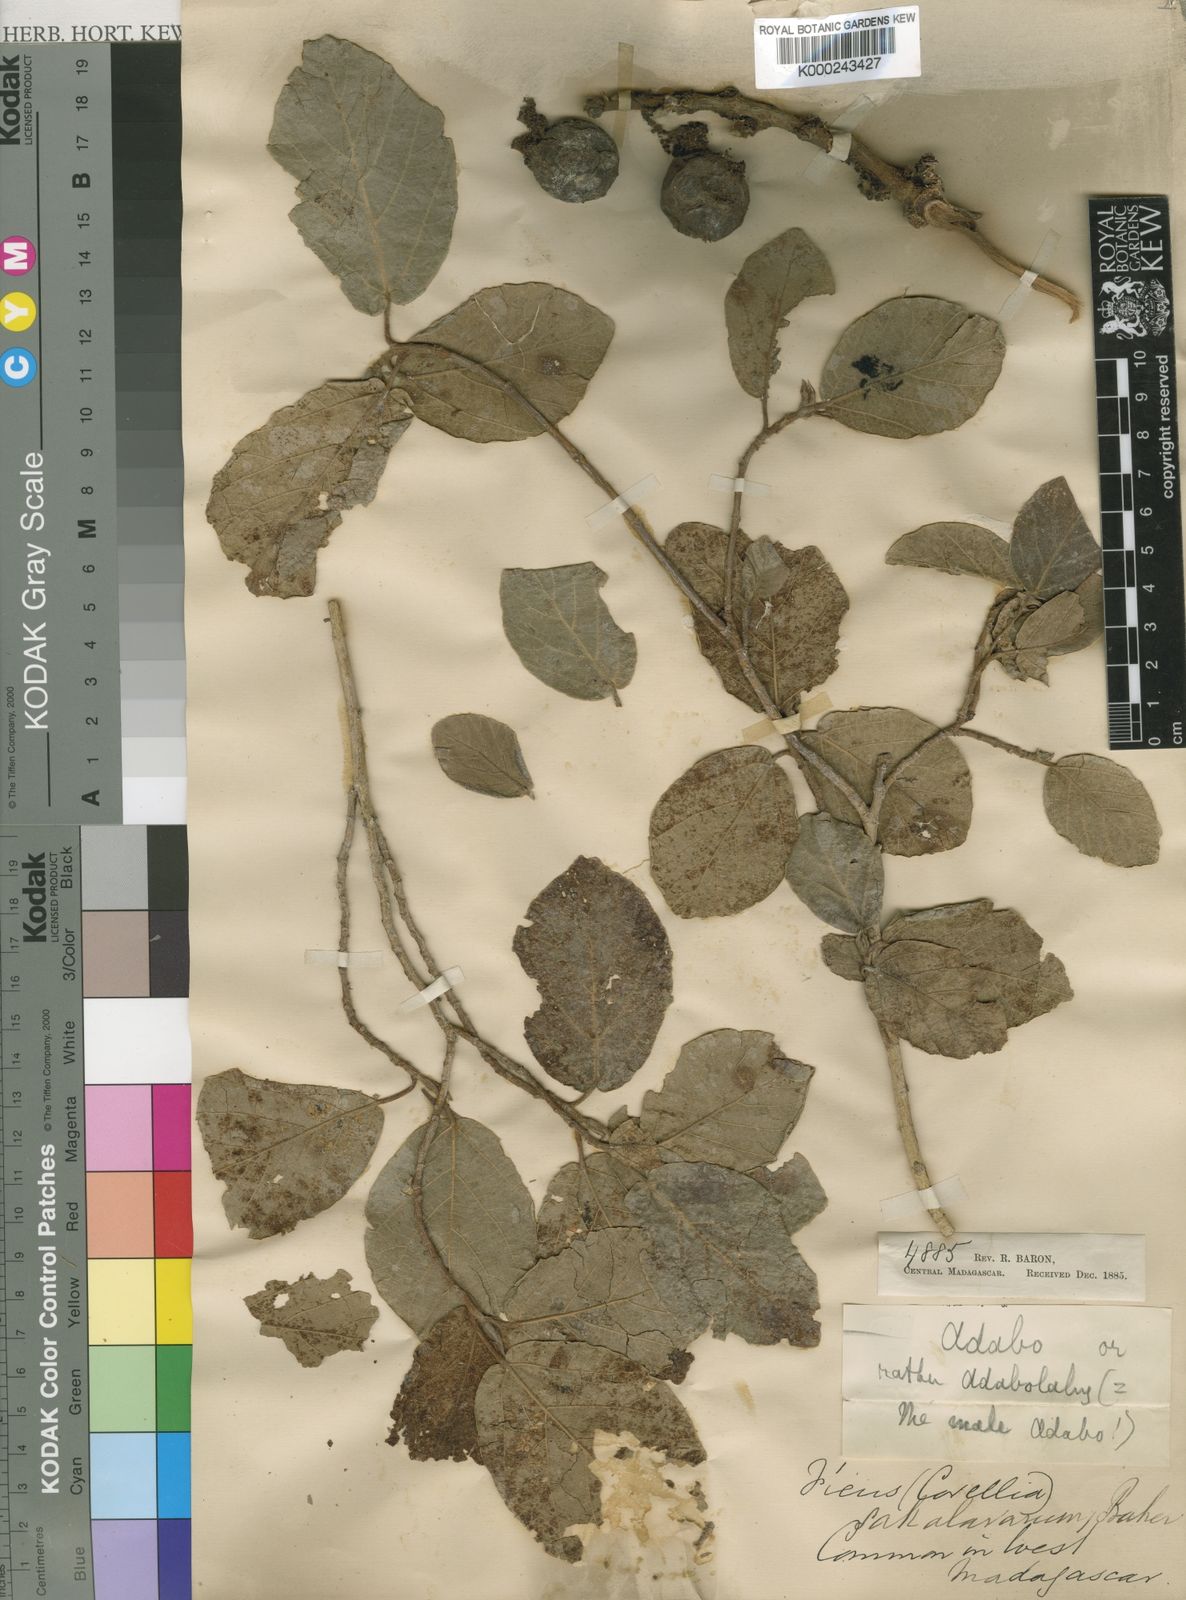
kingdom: Plantae
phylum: Tracheophyta
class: Magnoliopsida
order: Rosales
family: Moraceae
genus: Ficus
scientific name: Ficus sycomorus
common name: Sycomore
